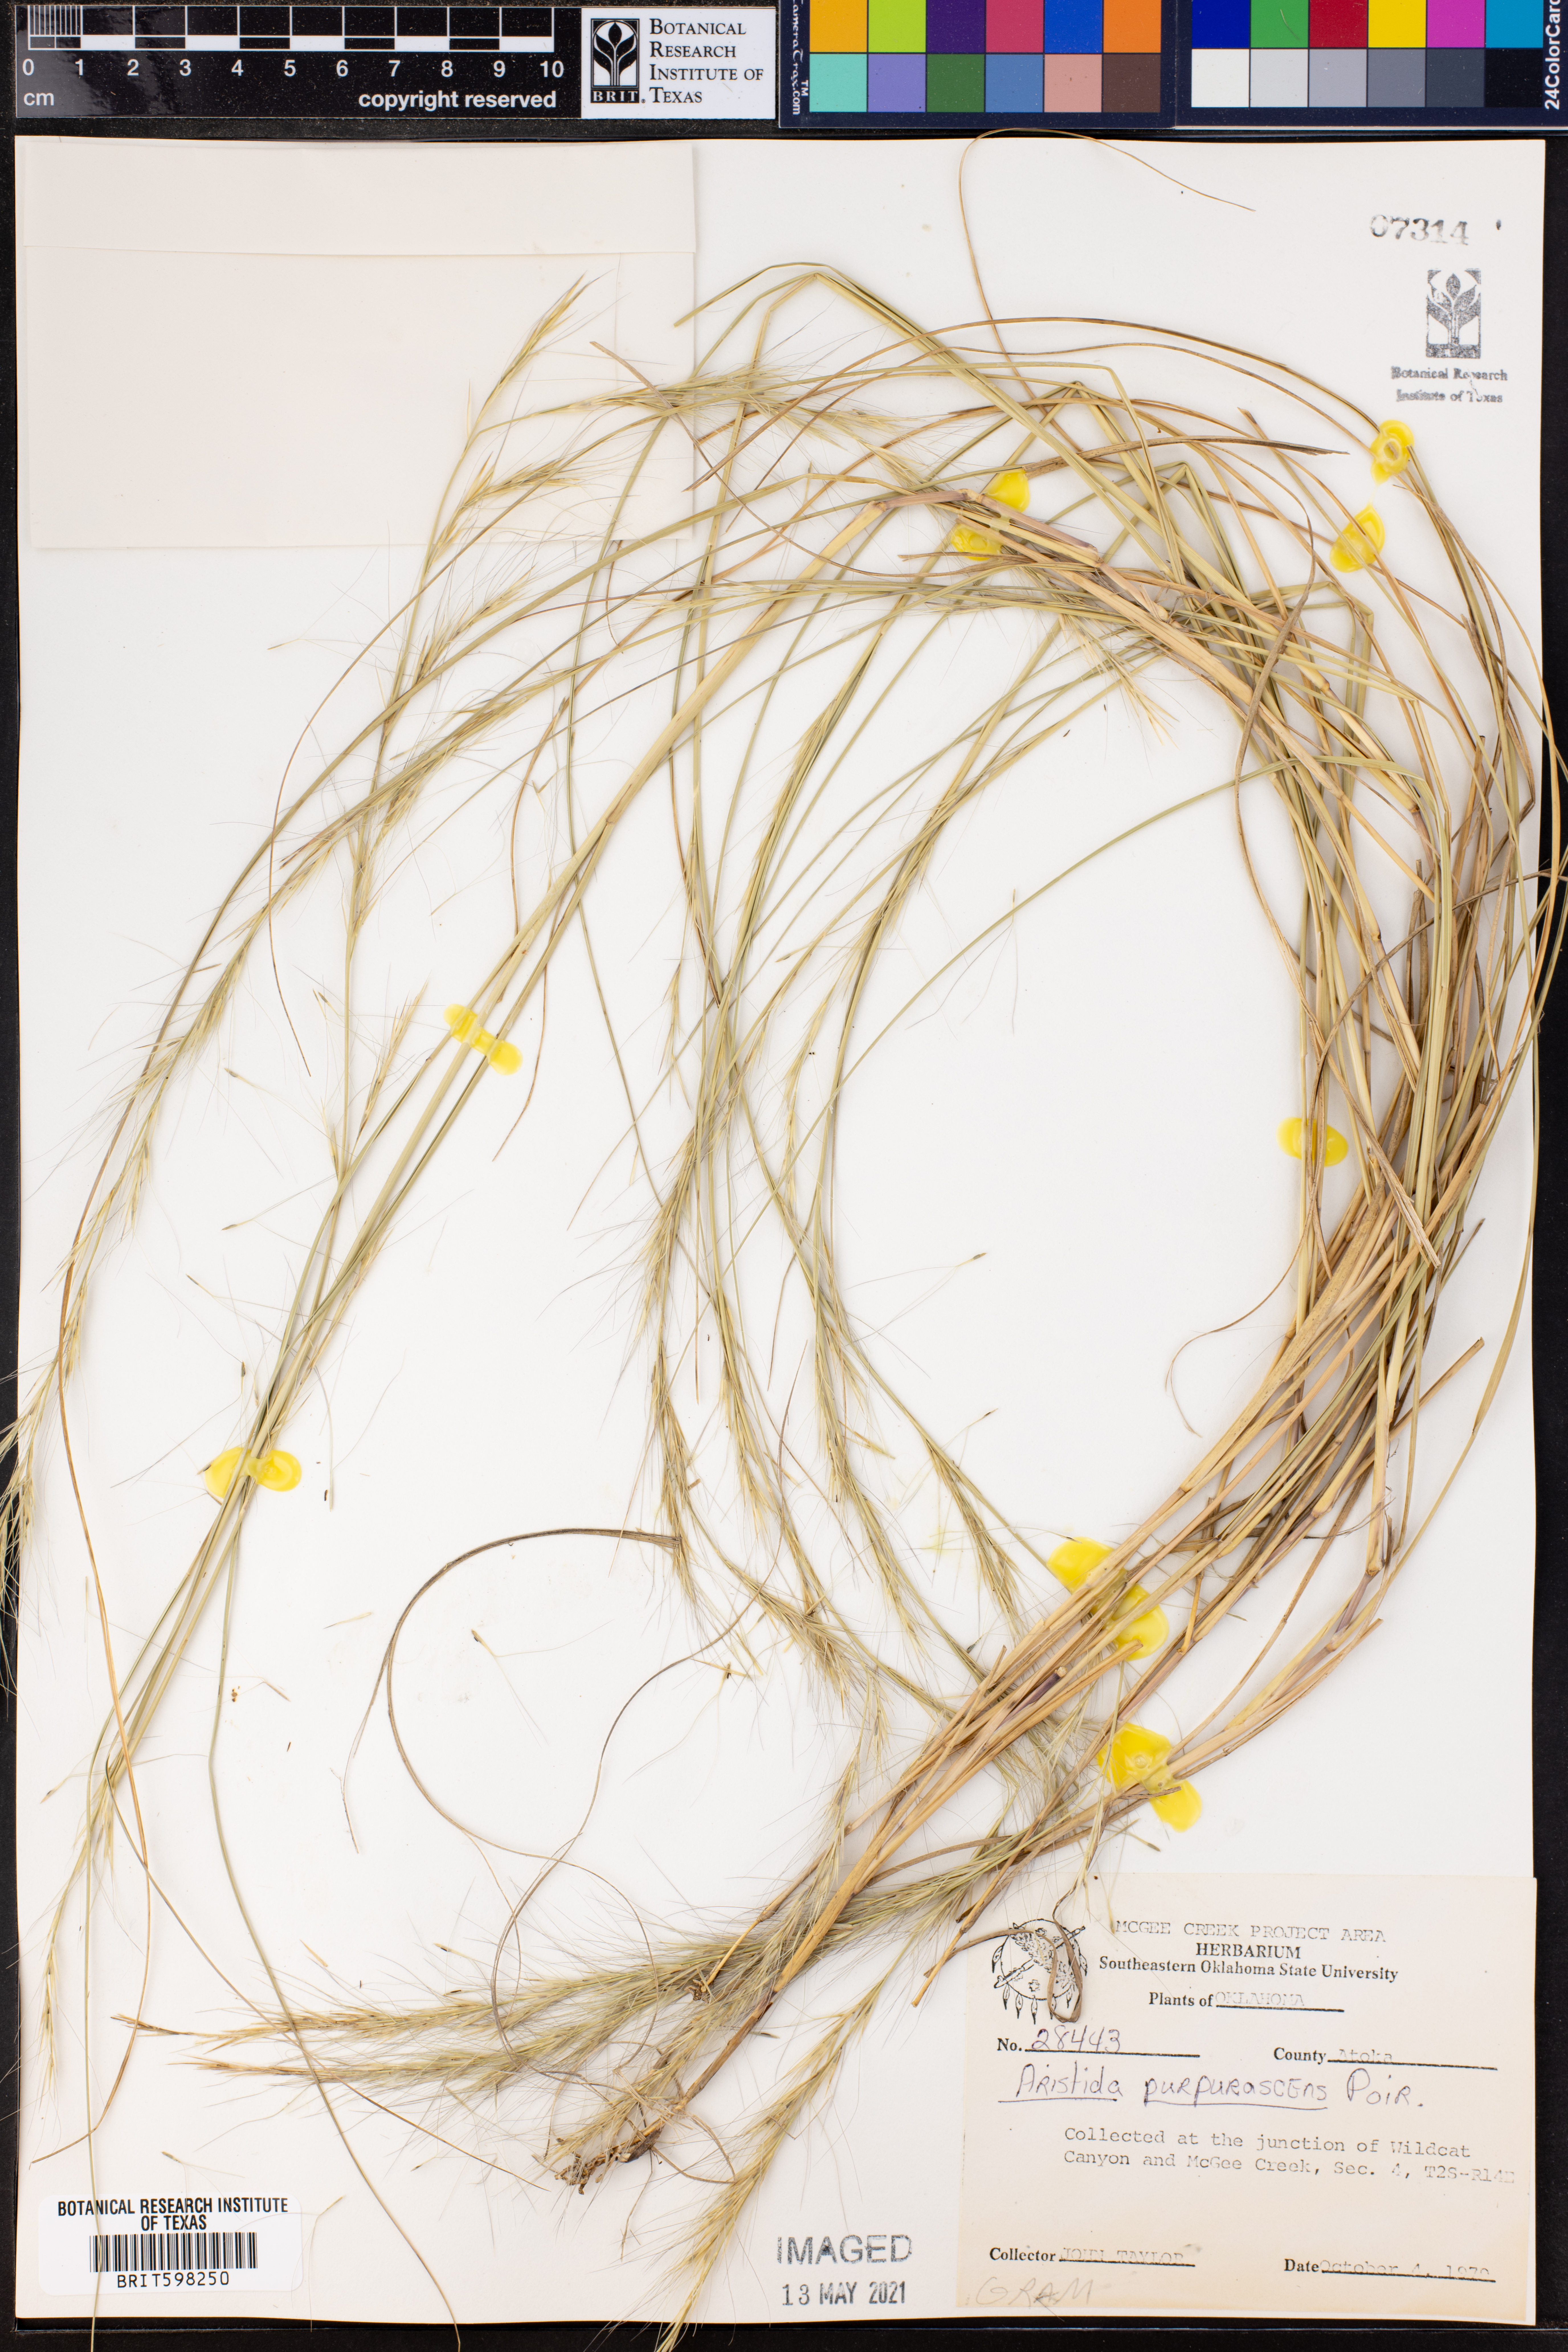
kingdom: Plantae
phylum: Tracheophyta
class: Liliopsida
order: Poales
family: Poaceae
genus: Aristida
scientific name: Aristida purpurascens
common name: Arrow-feather
